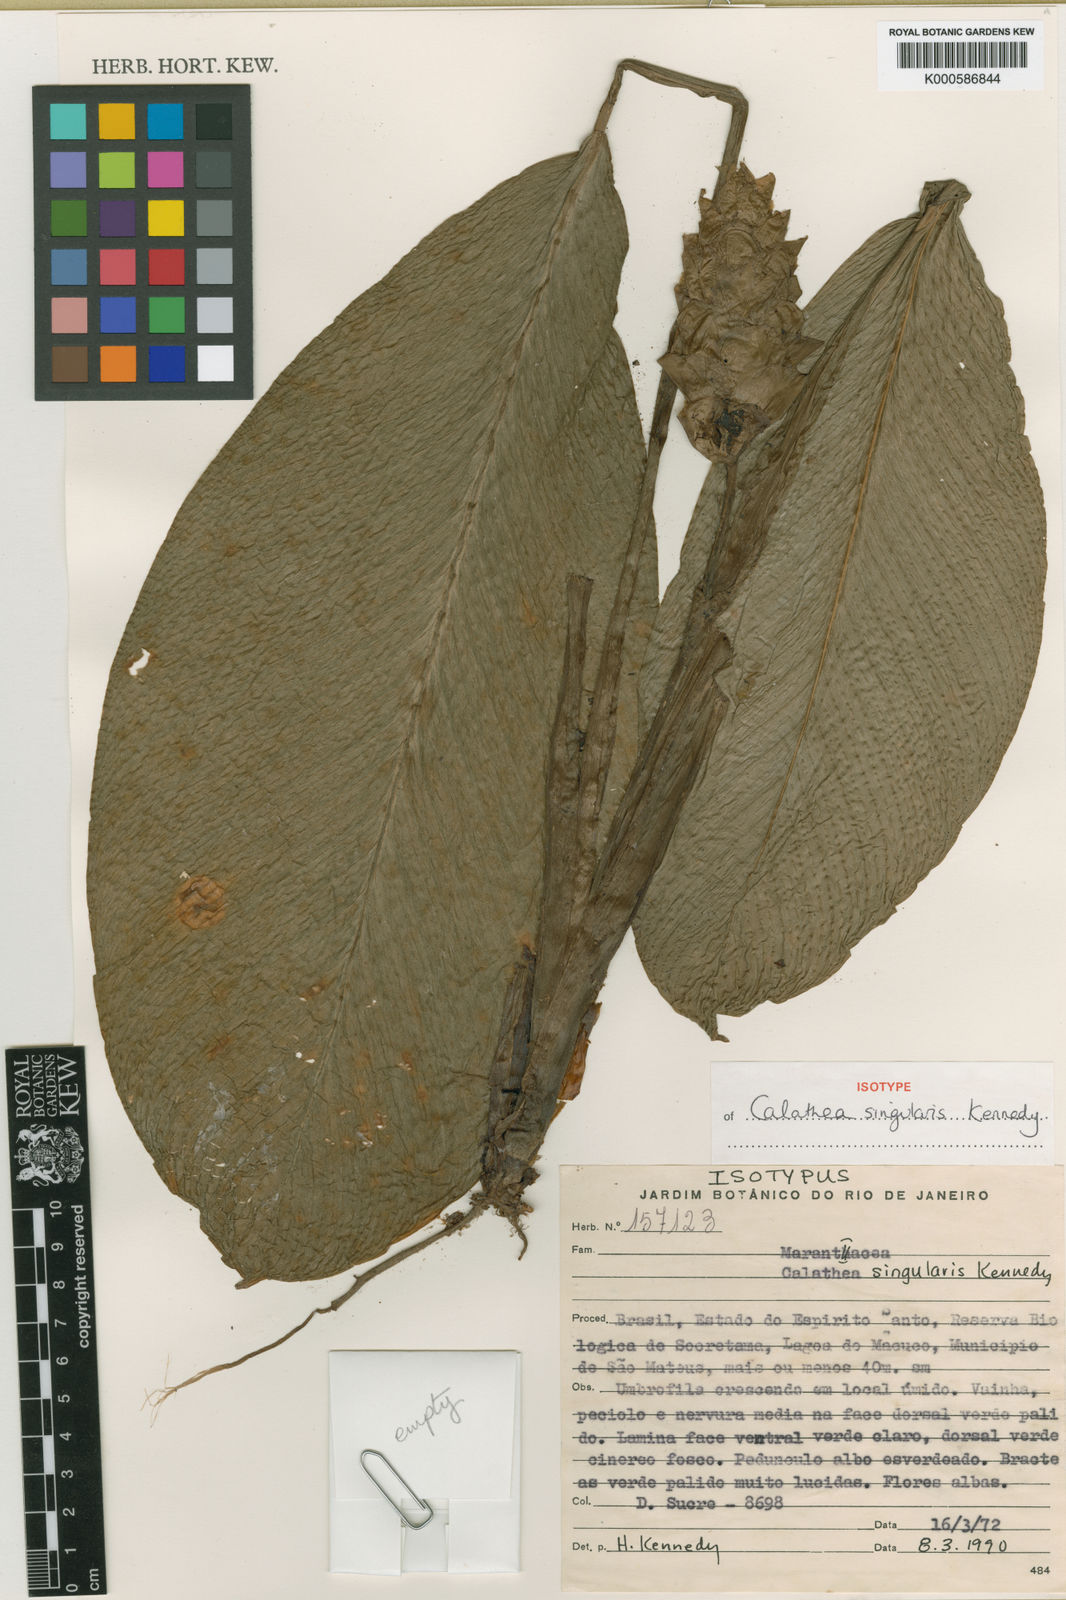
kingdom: Plantae
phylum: Tracheophyta
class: Liliopsida
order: Zingiberales
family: Marantaceae
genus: Goeppertia
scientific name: Goeppertia singularis
